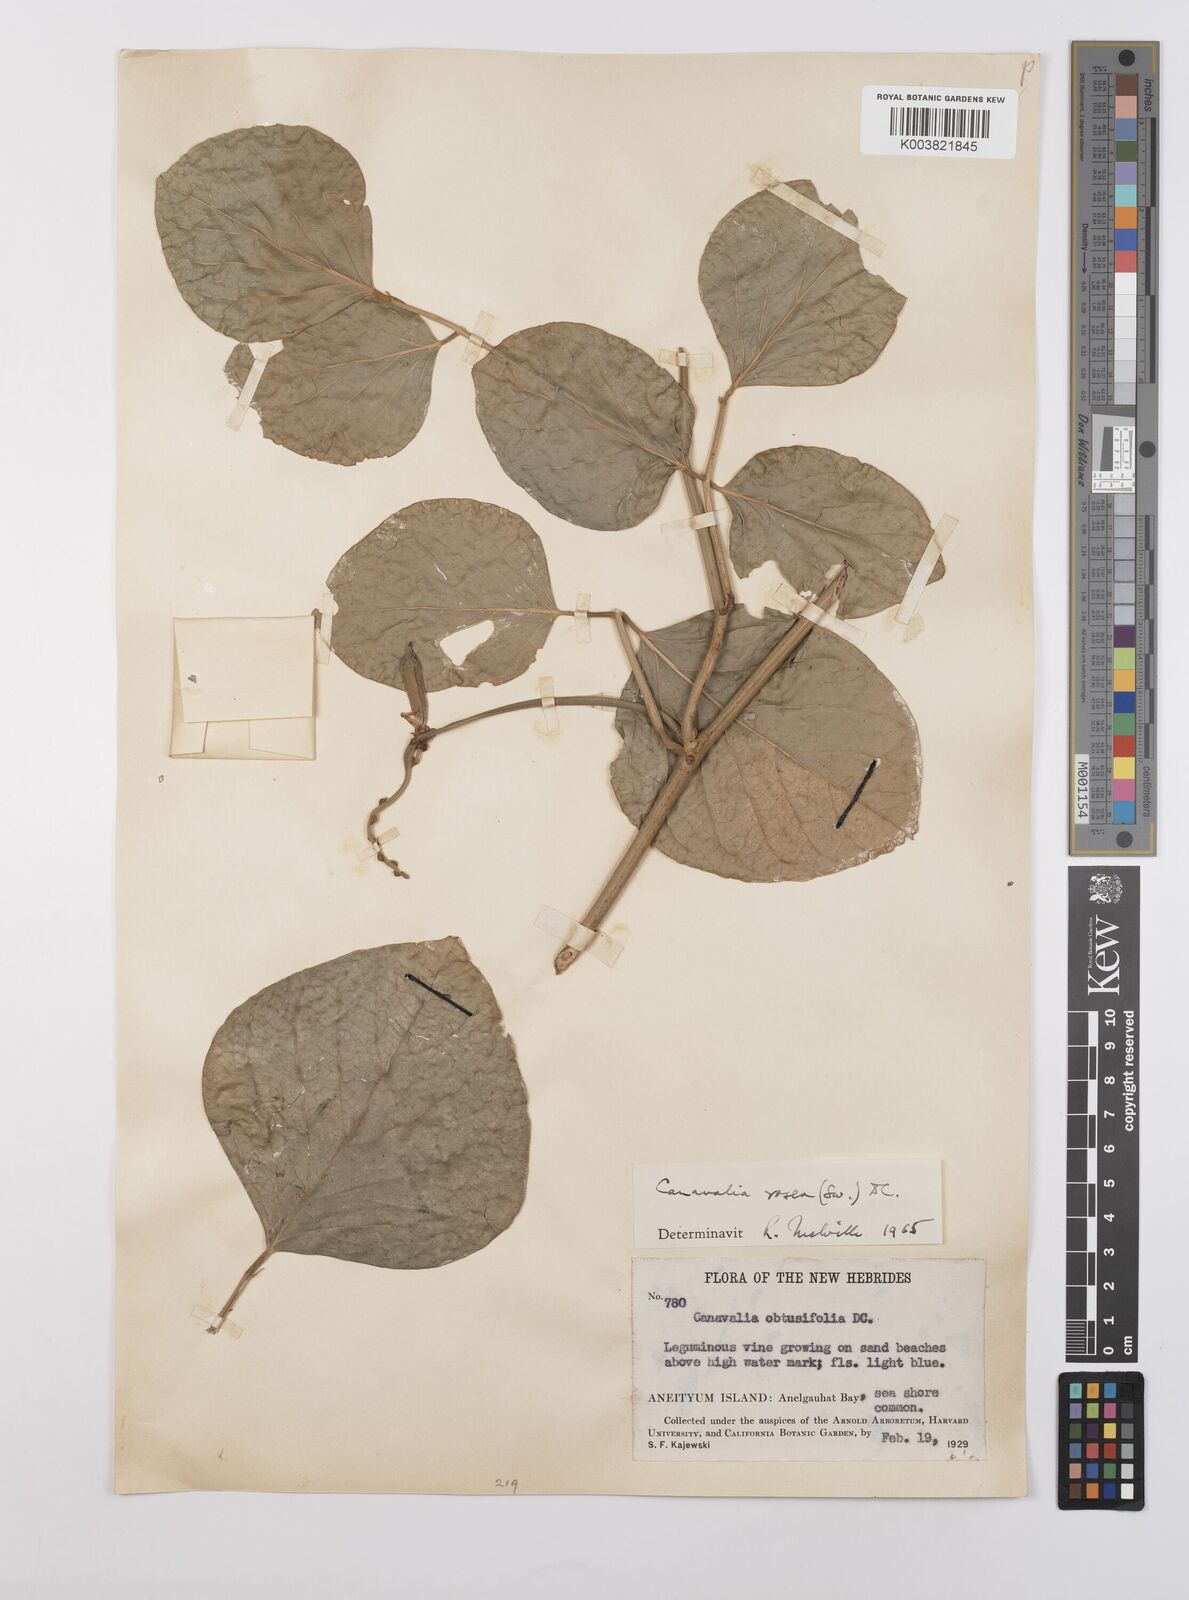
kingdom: Plantae
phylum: Tracheophyta
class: Magnoliopsida
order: Fabales
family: Fabaceae
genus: Canavalia
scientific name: Canavalia rosea
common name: Beach-bean
